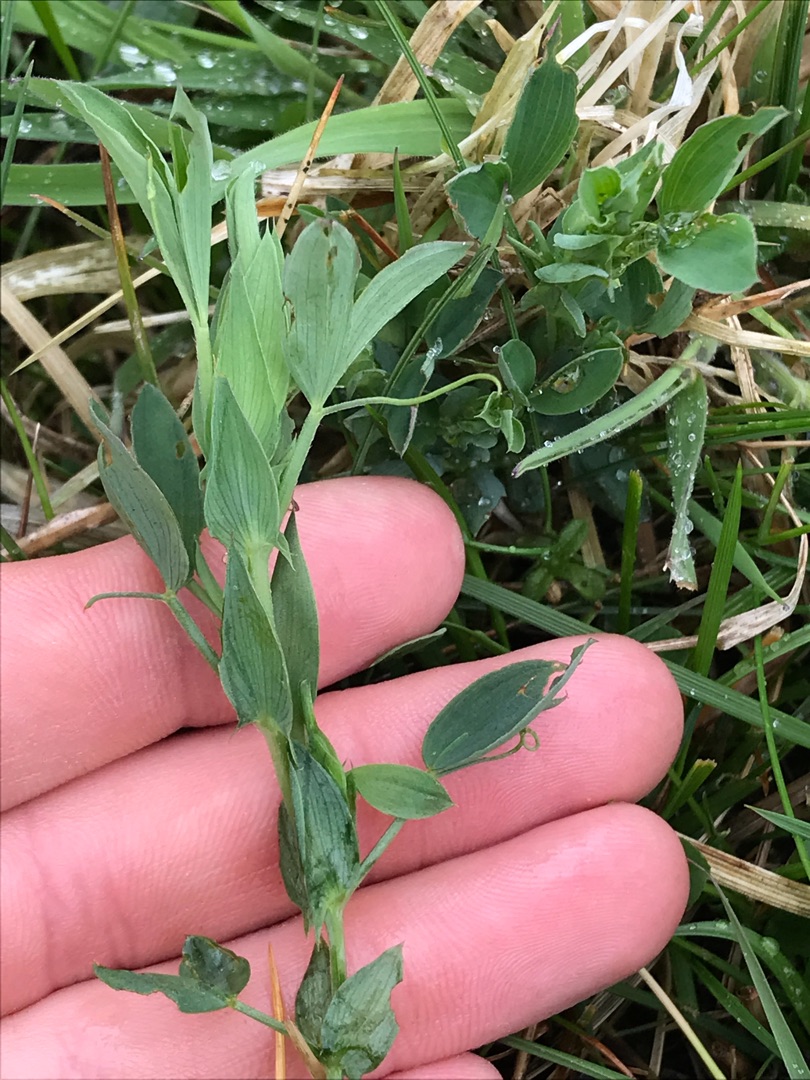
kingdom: Plantae
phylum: Tracheophyta
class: Magnoliopsida
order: Fabales
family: Fabaceae
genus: Lathyrus
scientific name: Lathyrus pratensis
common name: Gul fladbælg
